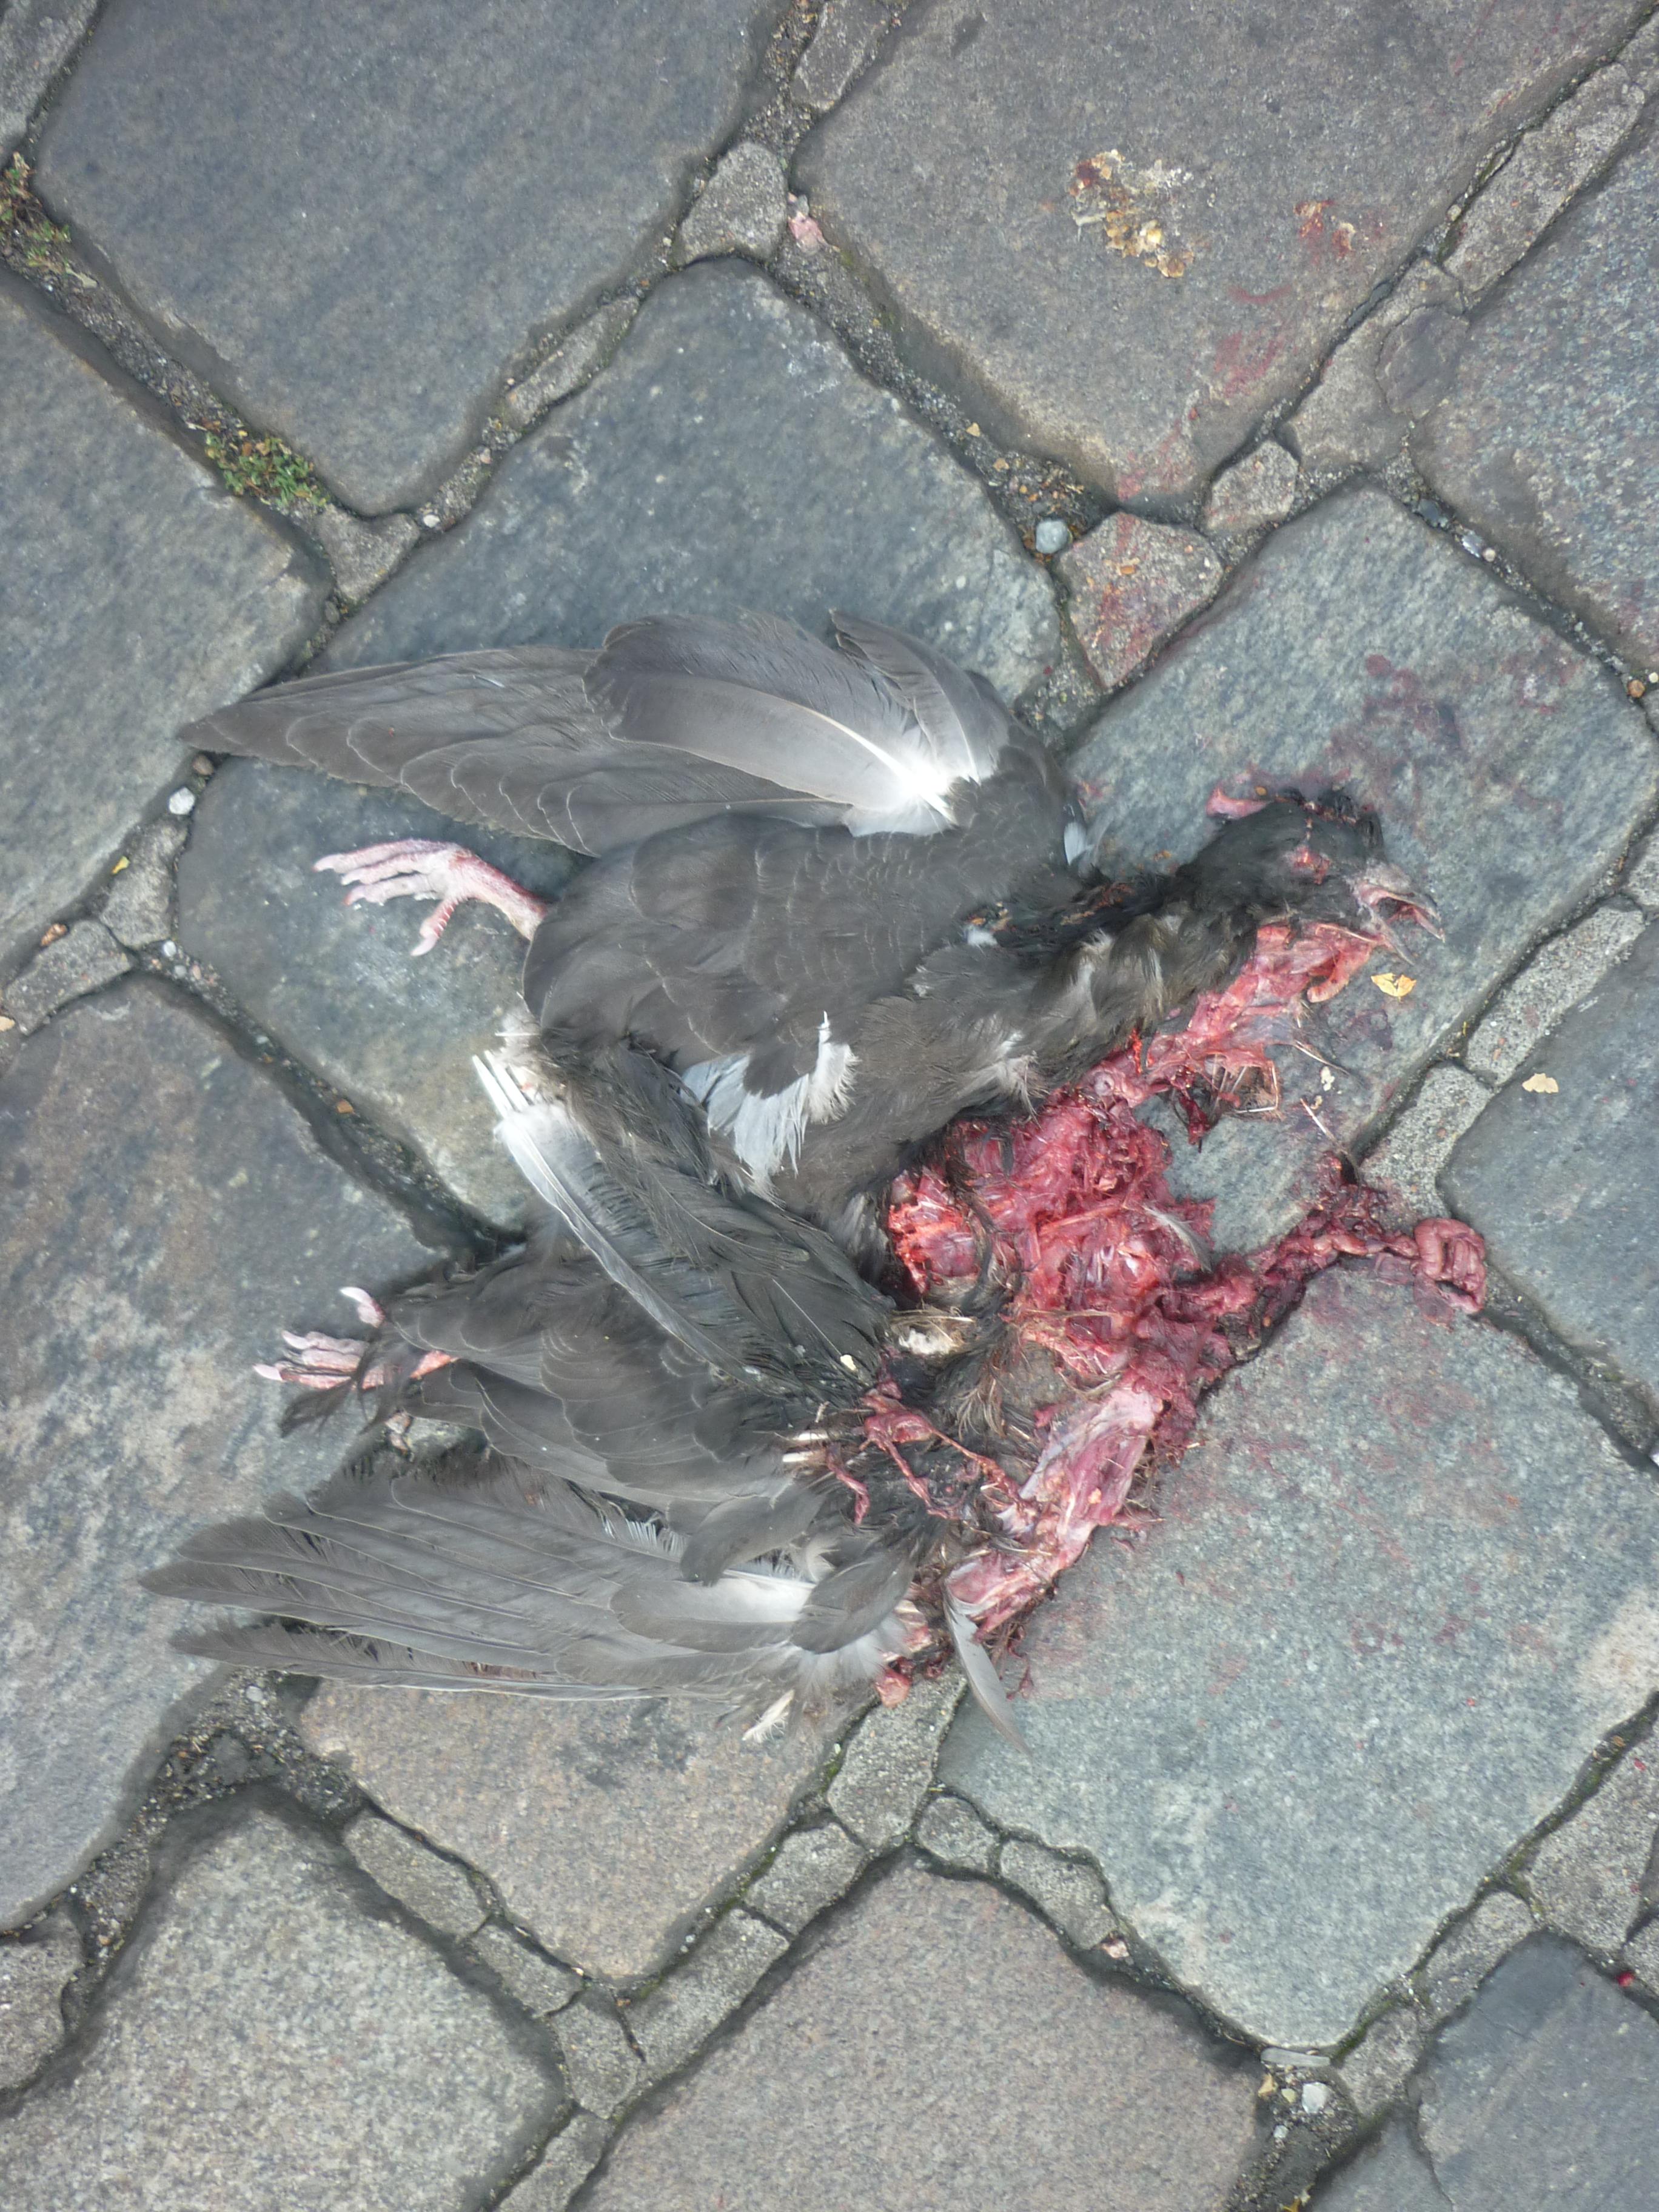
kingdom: Animalia
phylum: Chordata
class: Aves
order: Columbiformes
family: Columbidae
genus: Columba
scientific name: Columba livia
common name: Rock pigeon
